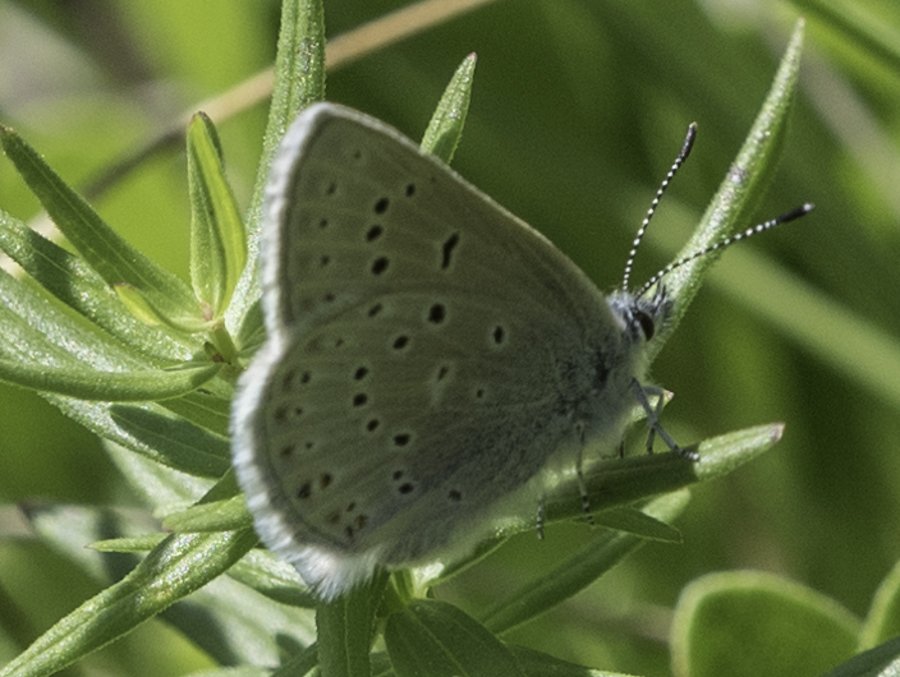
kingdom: Animalia
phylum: Arthropoda
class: Insecta
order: Lepidoptera
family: Lycaenidae
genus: Plebejus
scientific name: Plebejus saepiolus
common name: Greenish Blue
